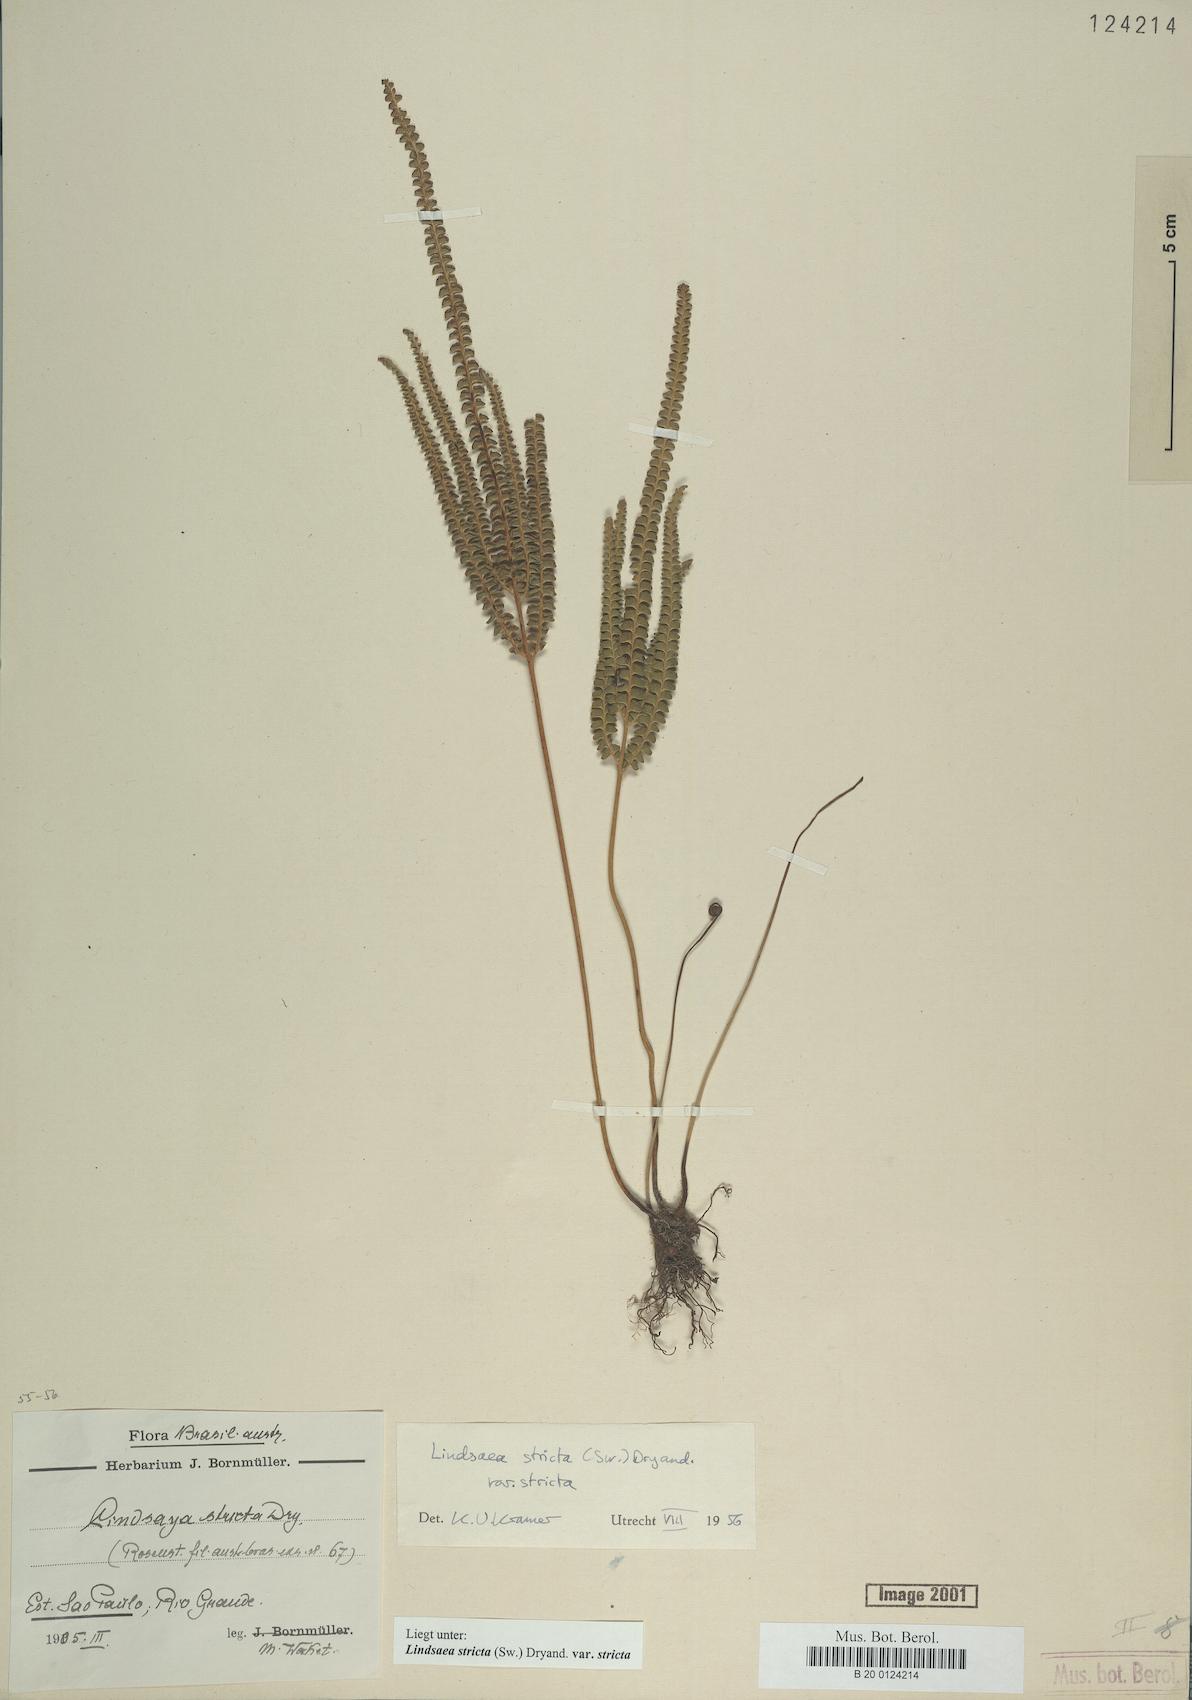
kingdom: Plantae
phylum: Tracheophyta
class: Polypodiopsida
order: Polypodiales
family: Lindsaeaceae
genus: Lindsaea
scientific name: Lindsaea stricta
